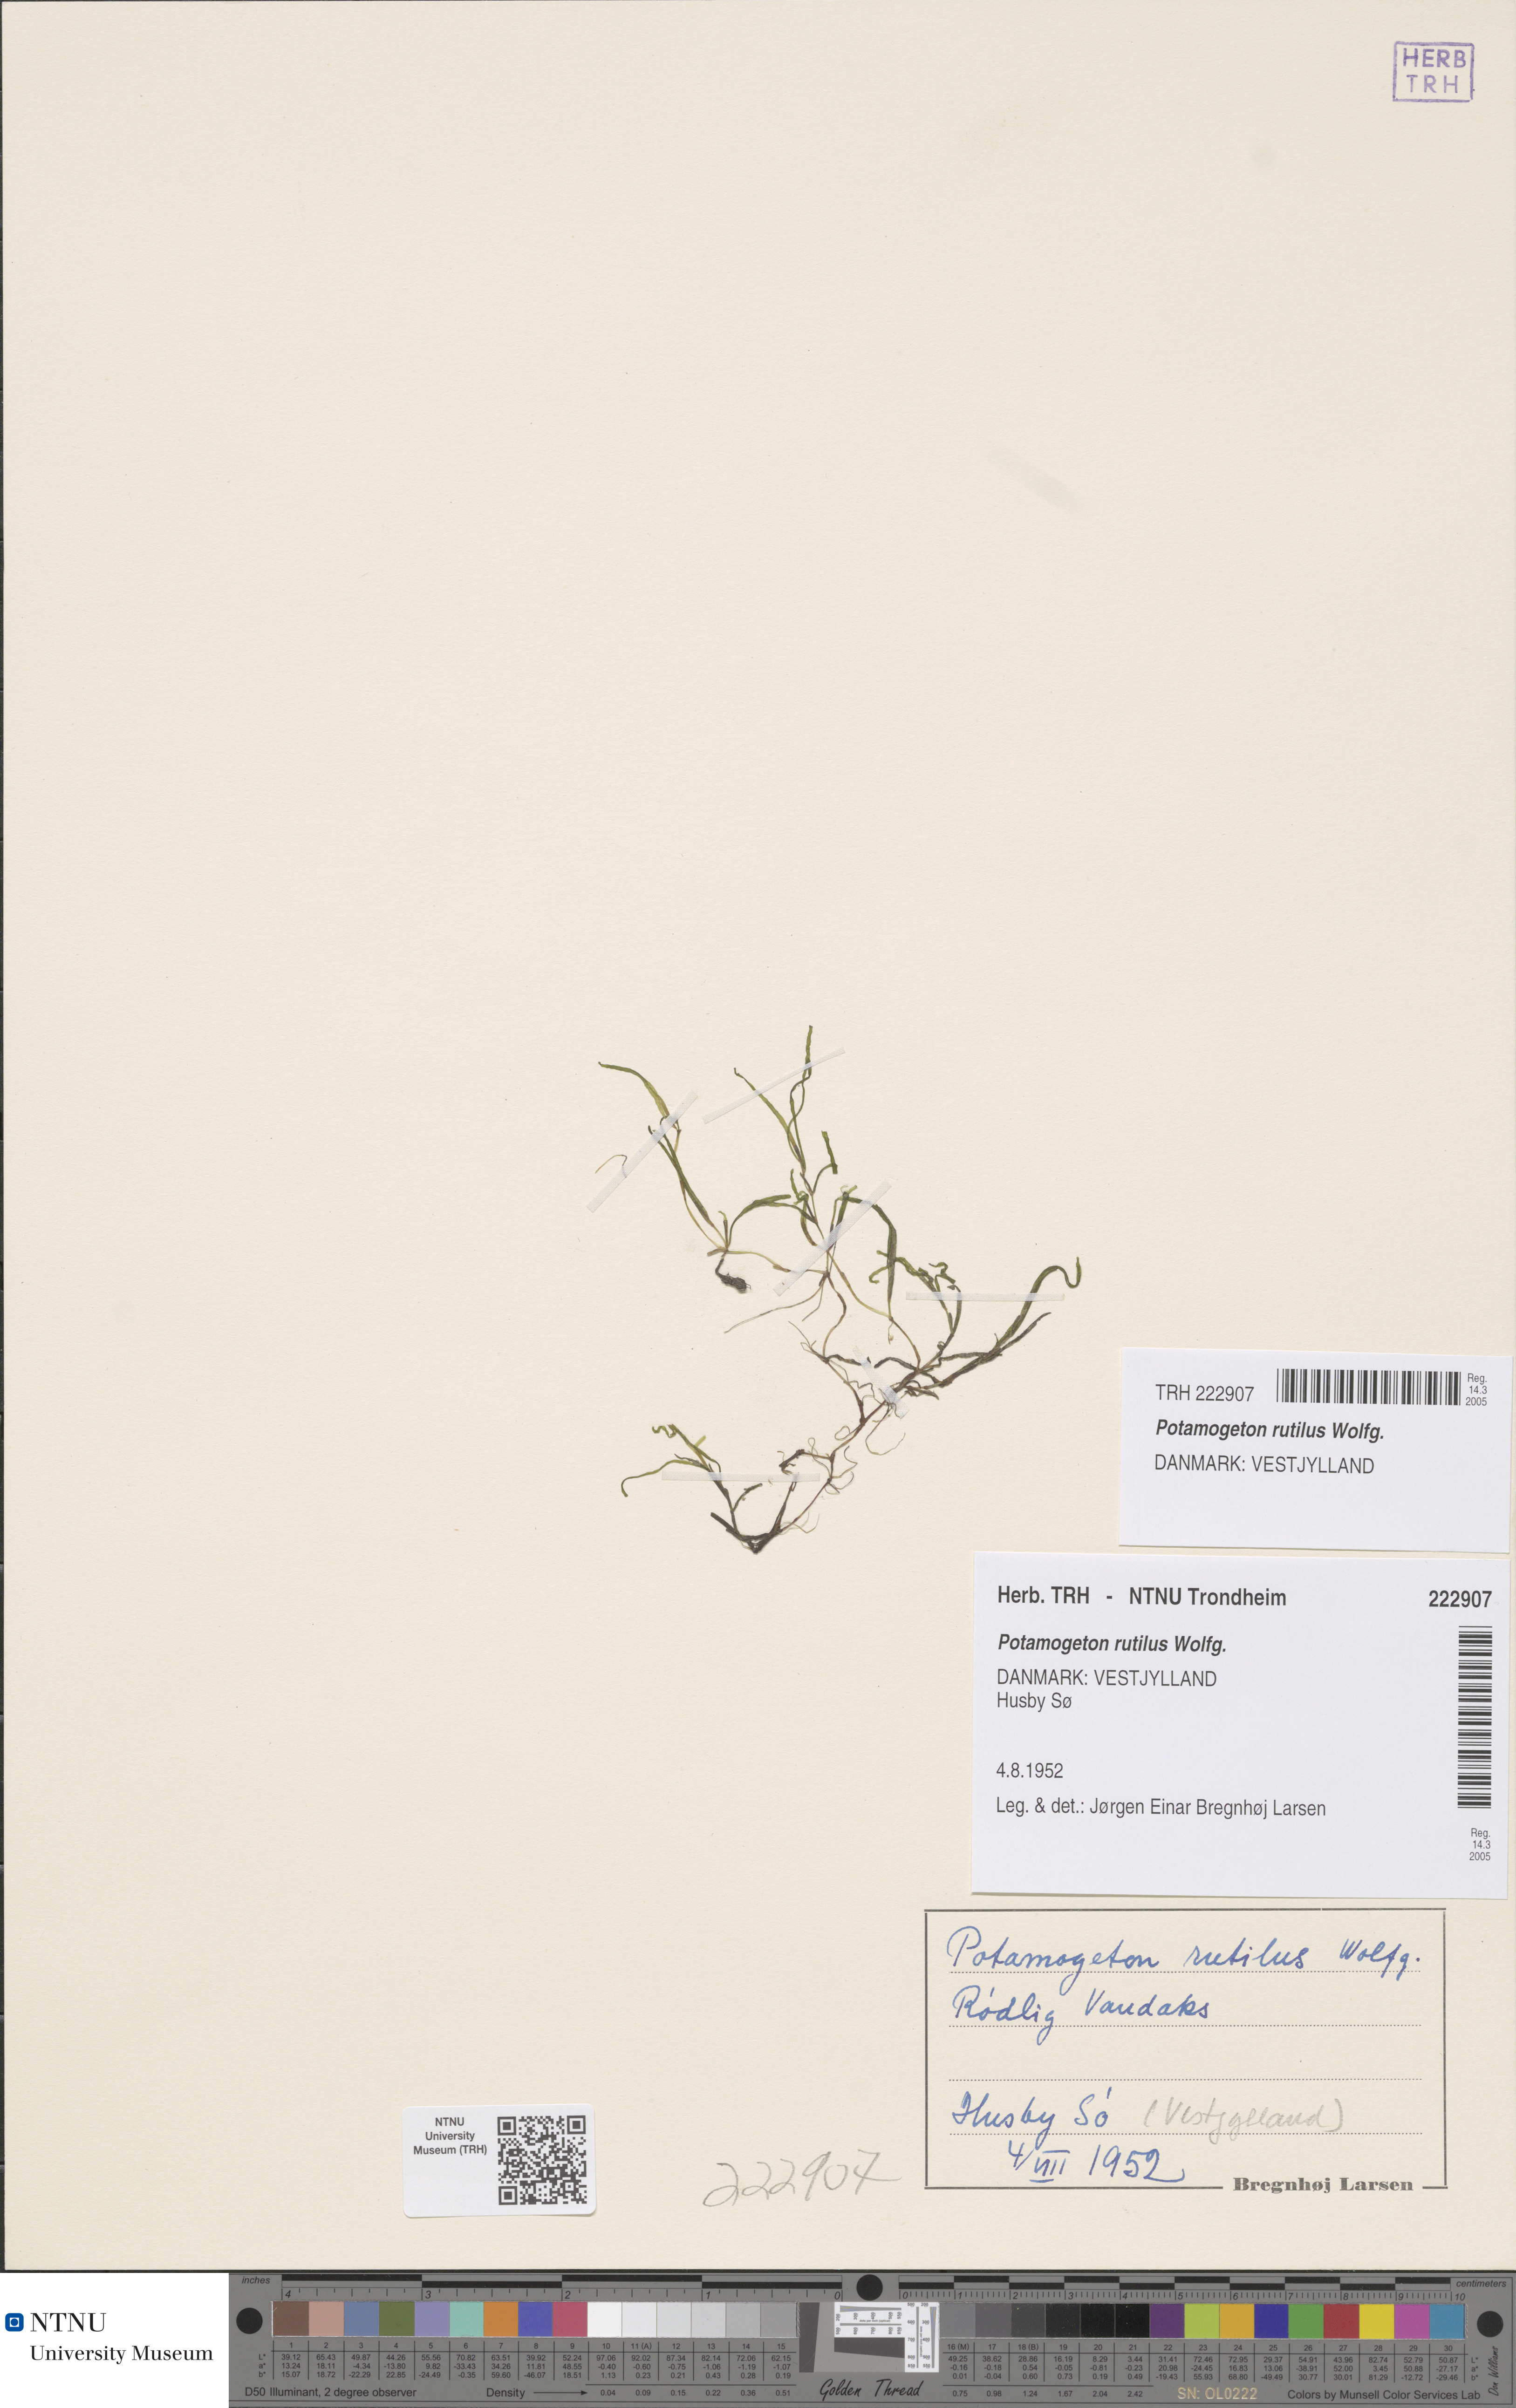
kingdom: Plantae
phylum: Tracheophyta
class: Liliopsida
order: Alismatales
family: Potamogetonaceae
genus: Potamogeton
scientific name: Potamogeton rutilus
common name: Shetland pondweed
